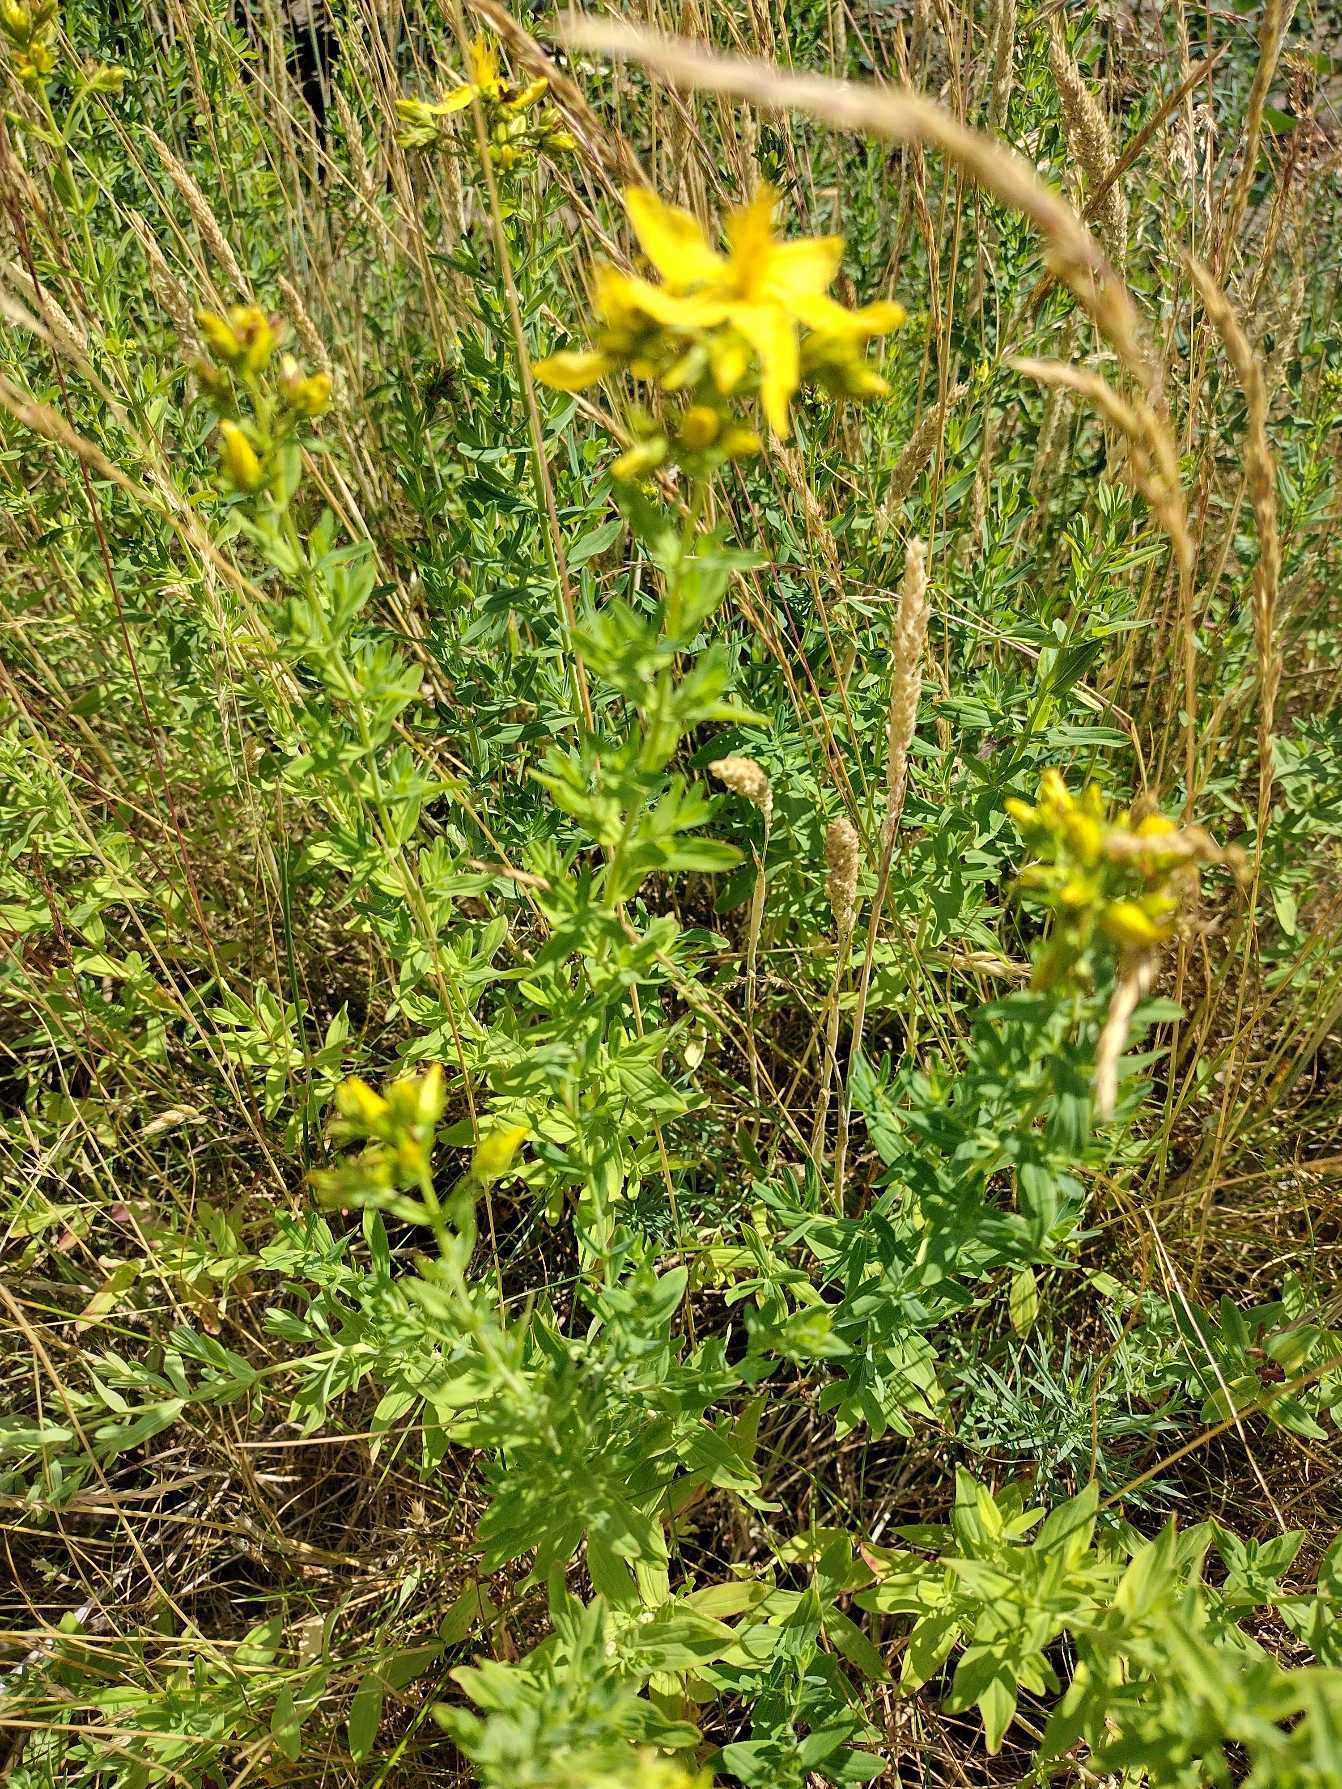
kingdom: Plantae
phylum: Tracheophyta
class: Magnoliopsida
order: Malpighiales
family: Hypericaceae
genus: Hypericum
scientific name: Hypericum perforatum
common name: Prikbladet perikon
